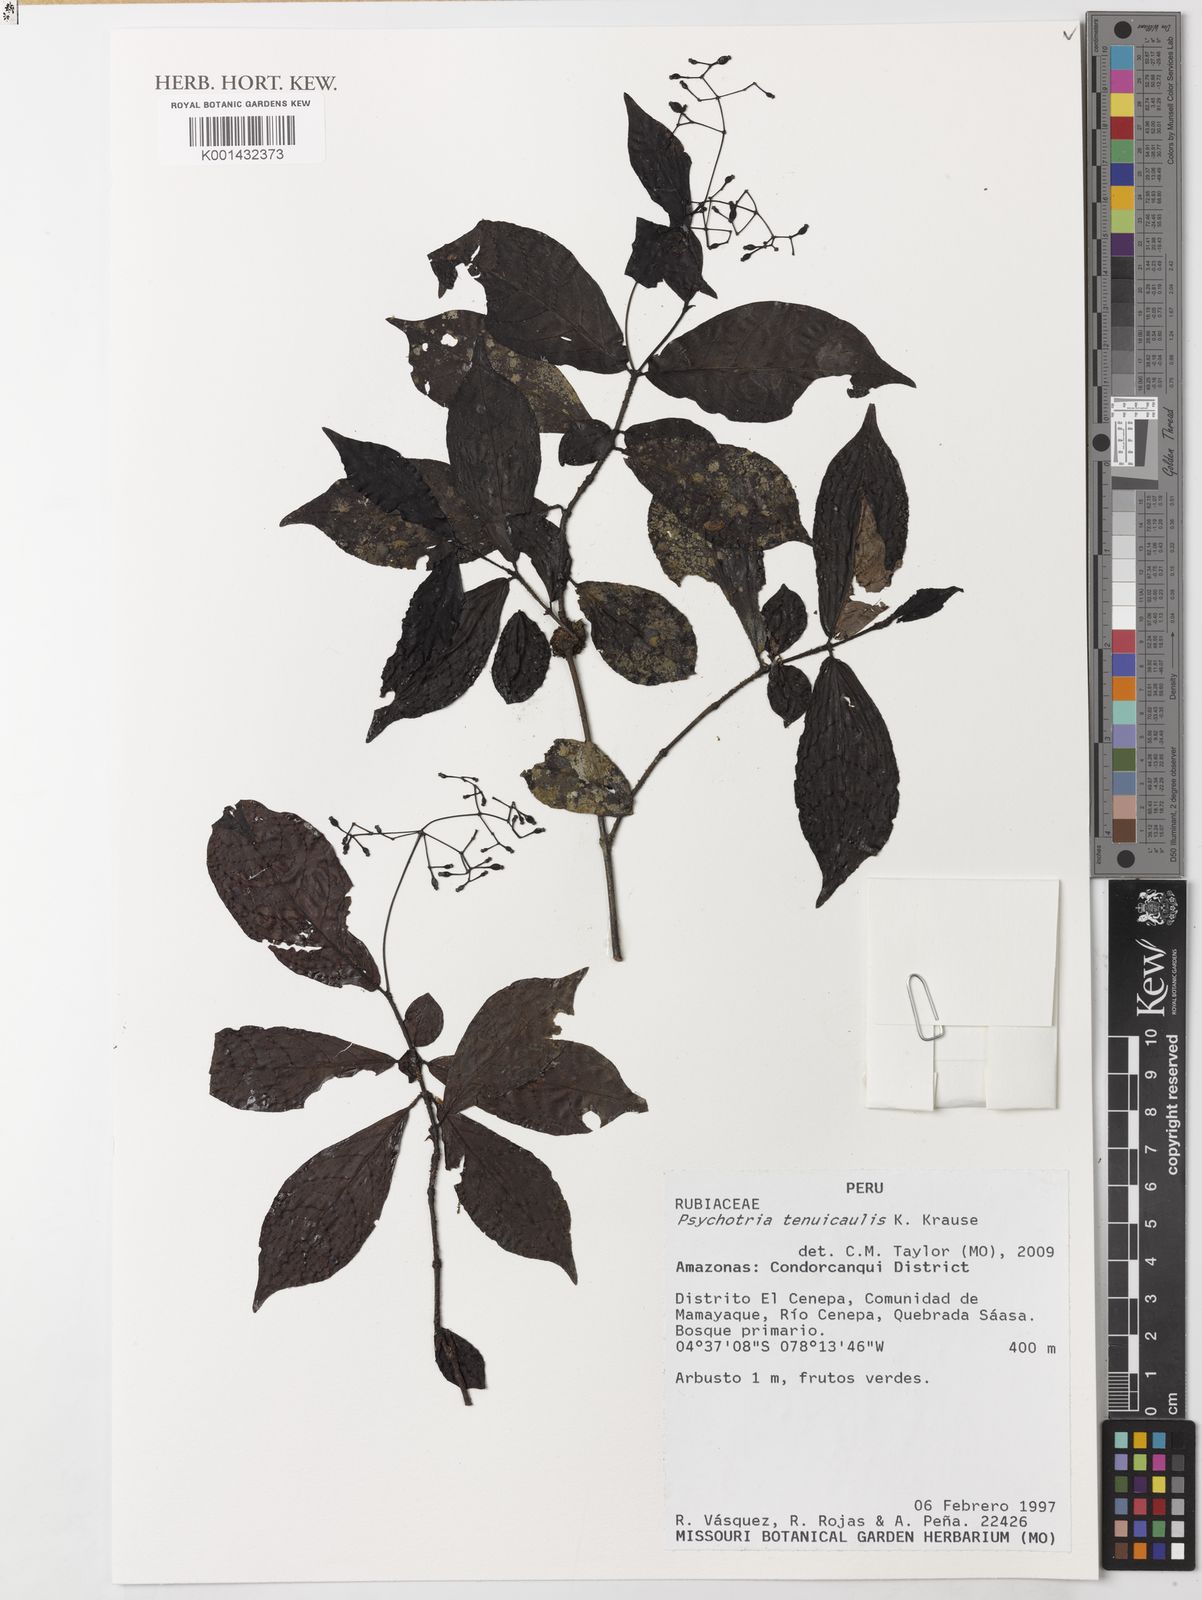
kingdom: Plantae
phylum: Tracheophyta
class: Magnoliopsida
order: Gentianales
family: Rubiaceae
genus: Psychotria
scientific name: Psychotria tenuicaulis
